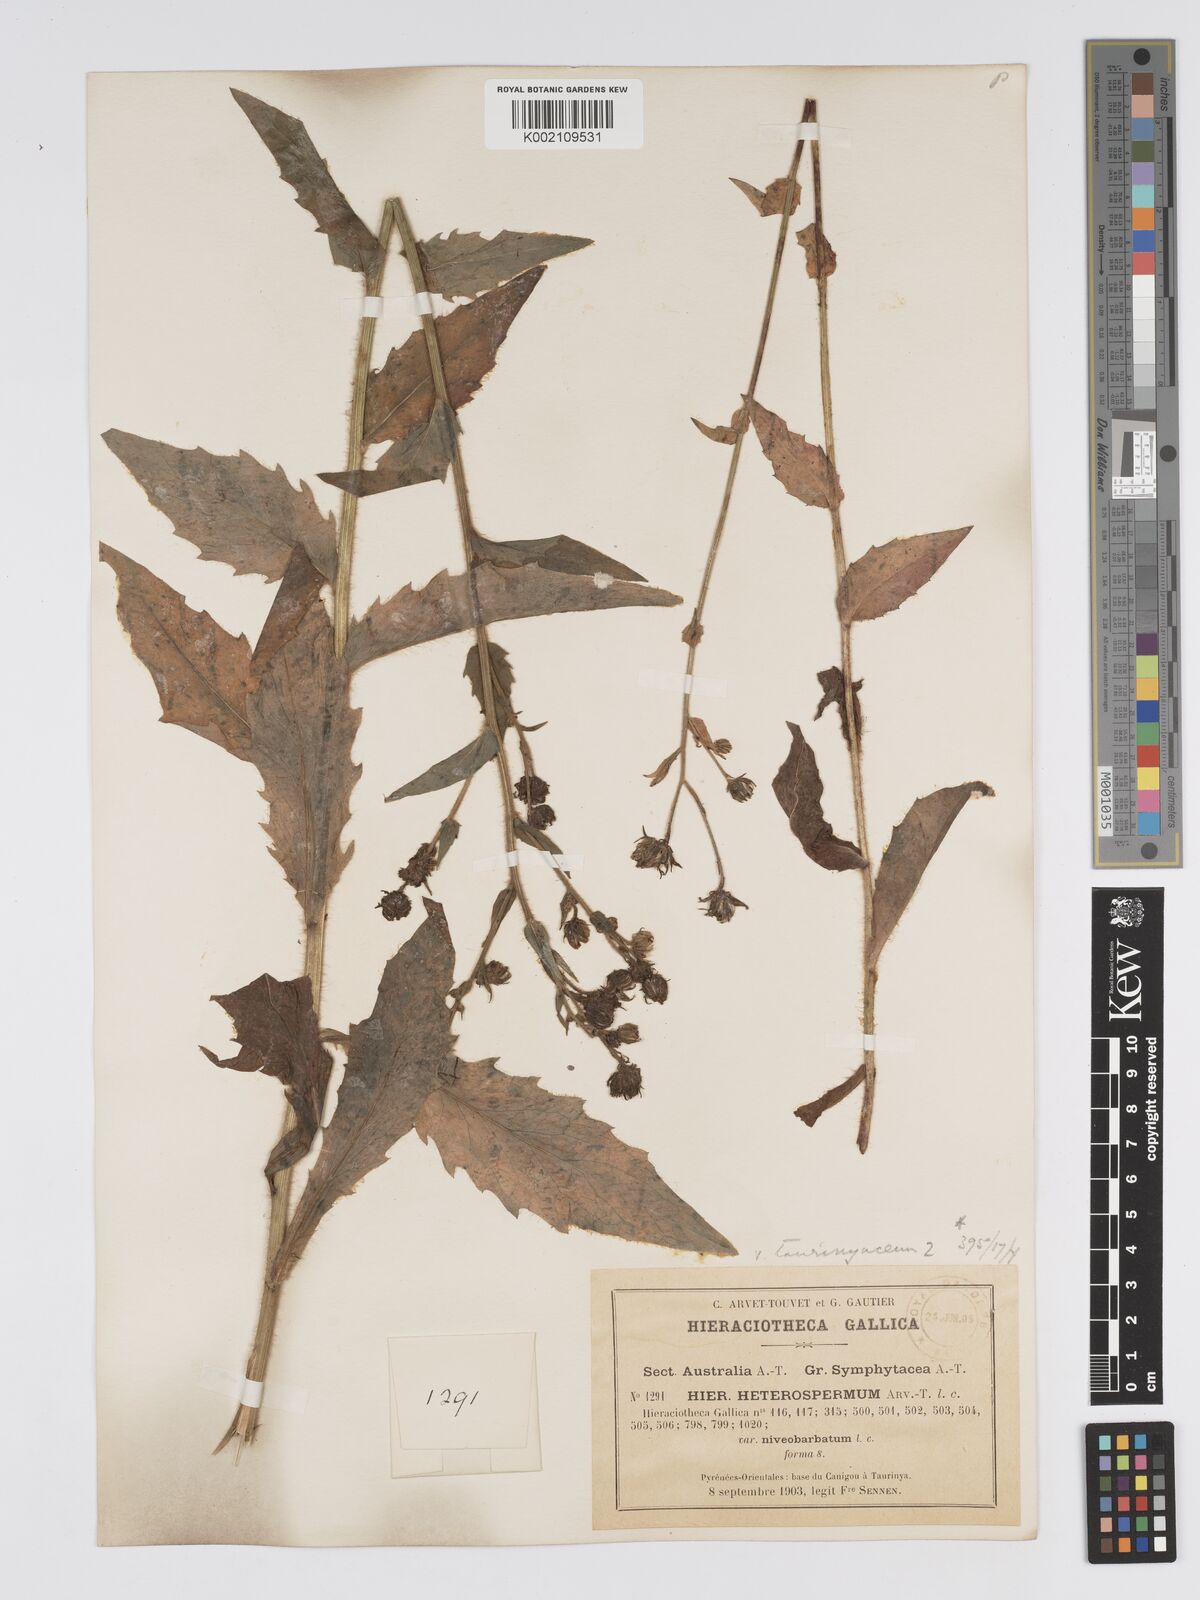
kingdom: Plantae
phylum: Tracheophyta
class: Magnoliopsida
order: Asterales
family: Asteraceae
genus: Hieracium
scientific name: Hieracium racemosum
